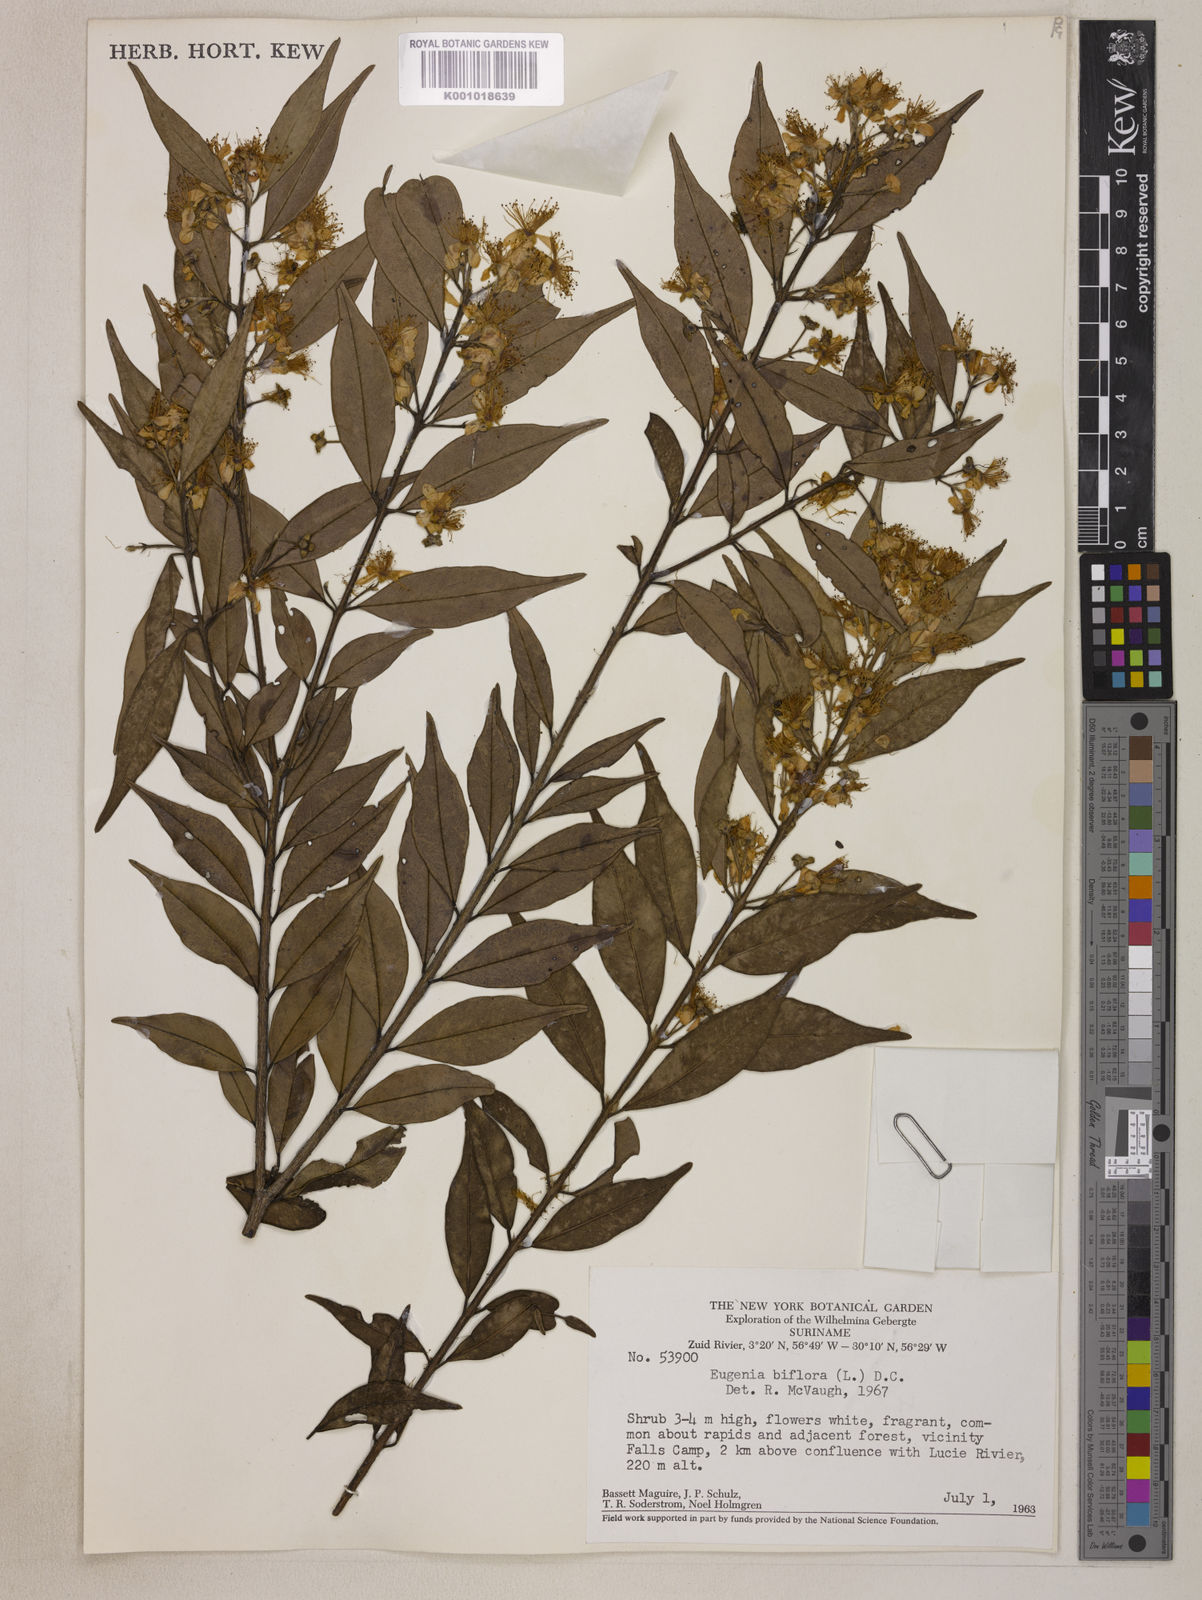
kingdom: Plantae
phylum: Tracheophyta
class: Magnoliopsida
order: Myrtales
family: Myrtaceae
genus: Eugenia
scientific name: Eugenia biflora
